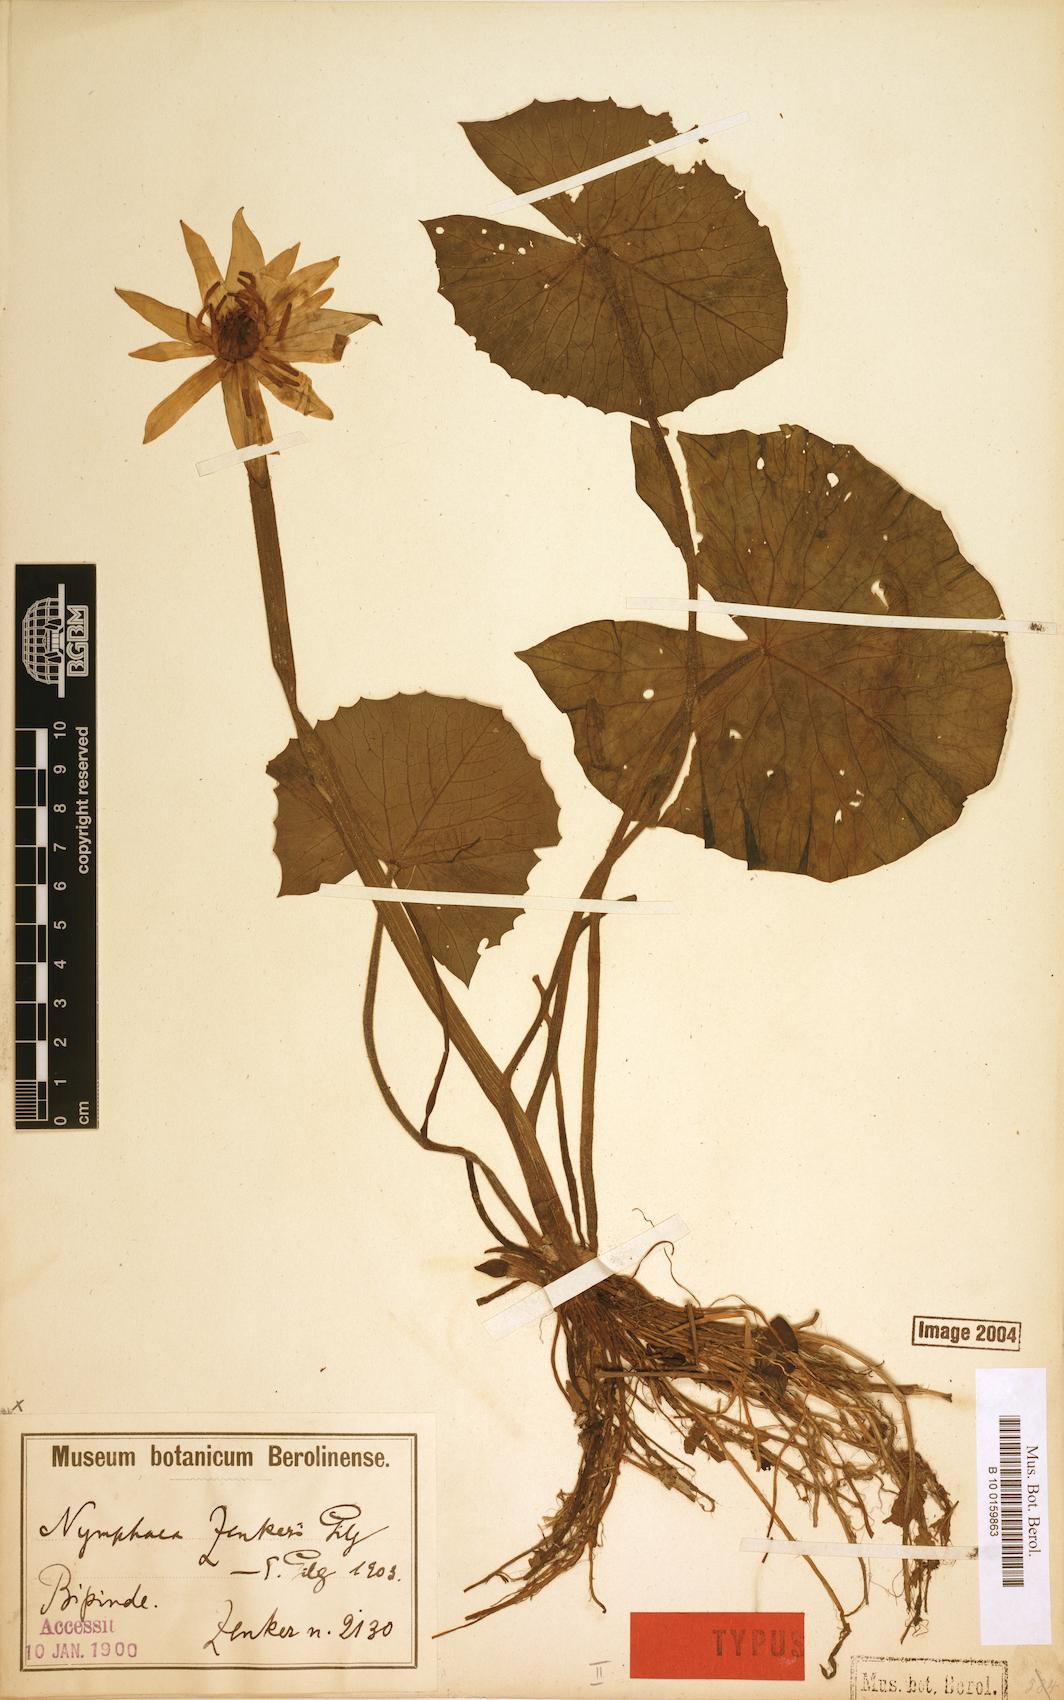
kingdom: Plantae
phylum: Tracheophyta
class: Magnoliopsida
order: Nymphaeales
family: Nymphaeaceae
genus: Nymphaea
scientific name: Nymphaea lotus
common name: White egyptian lotus
